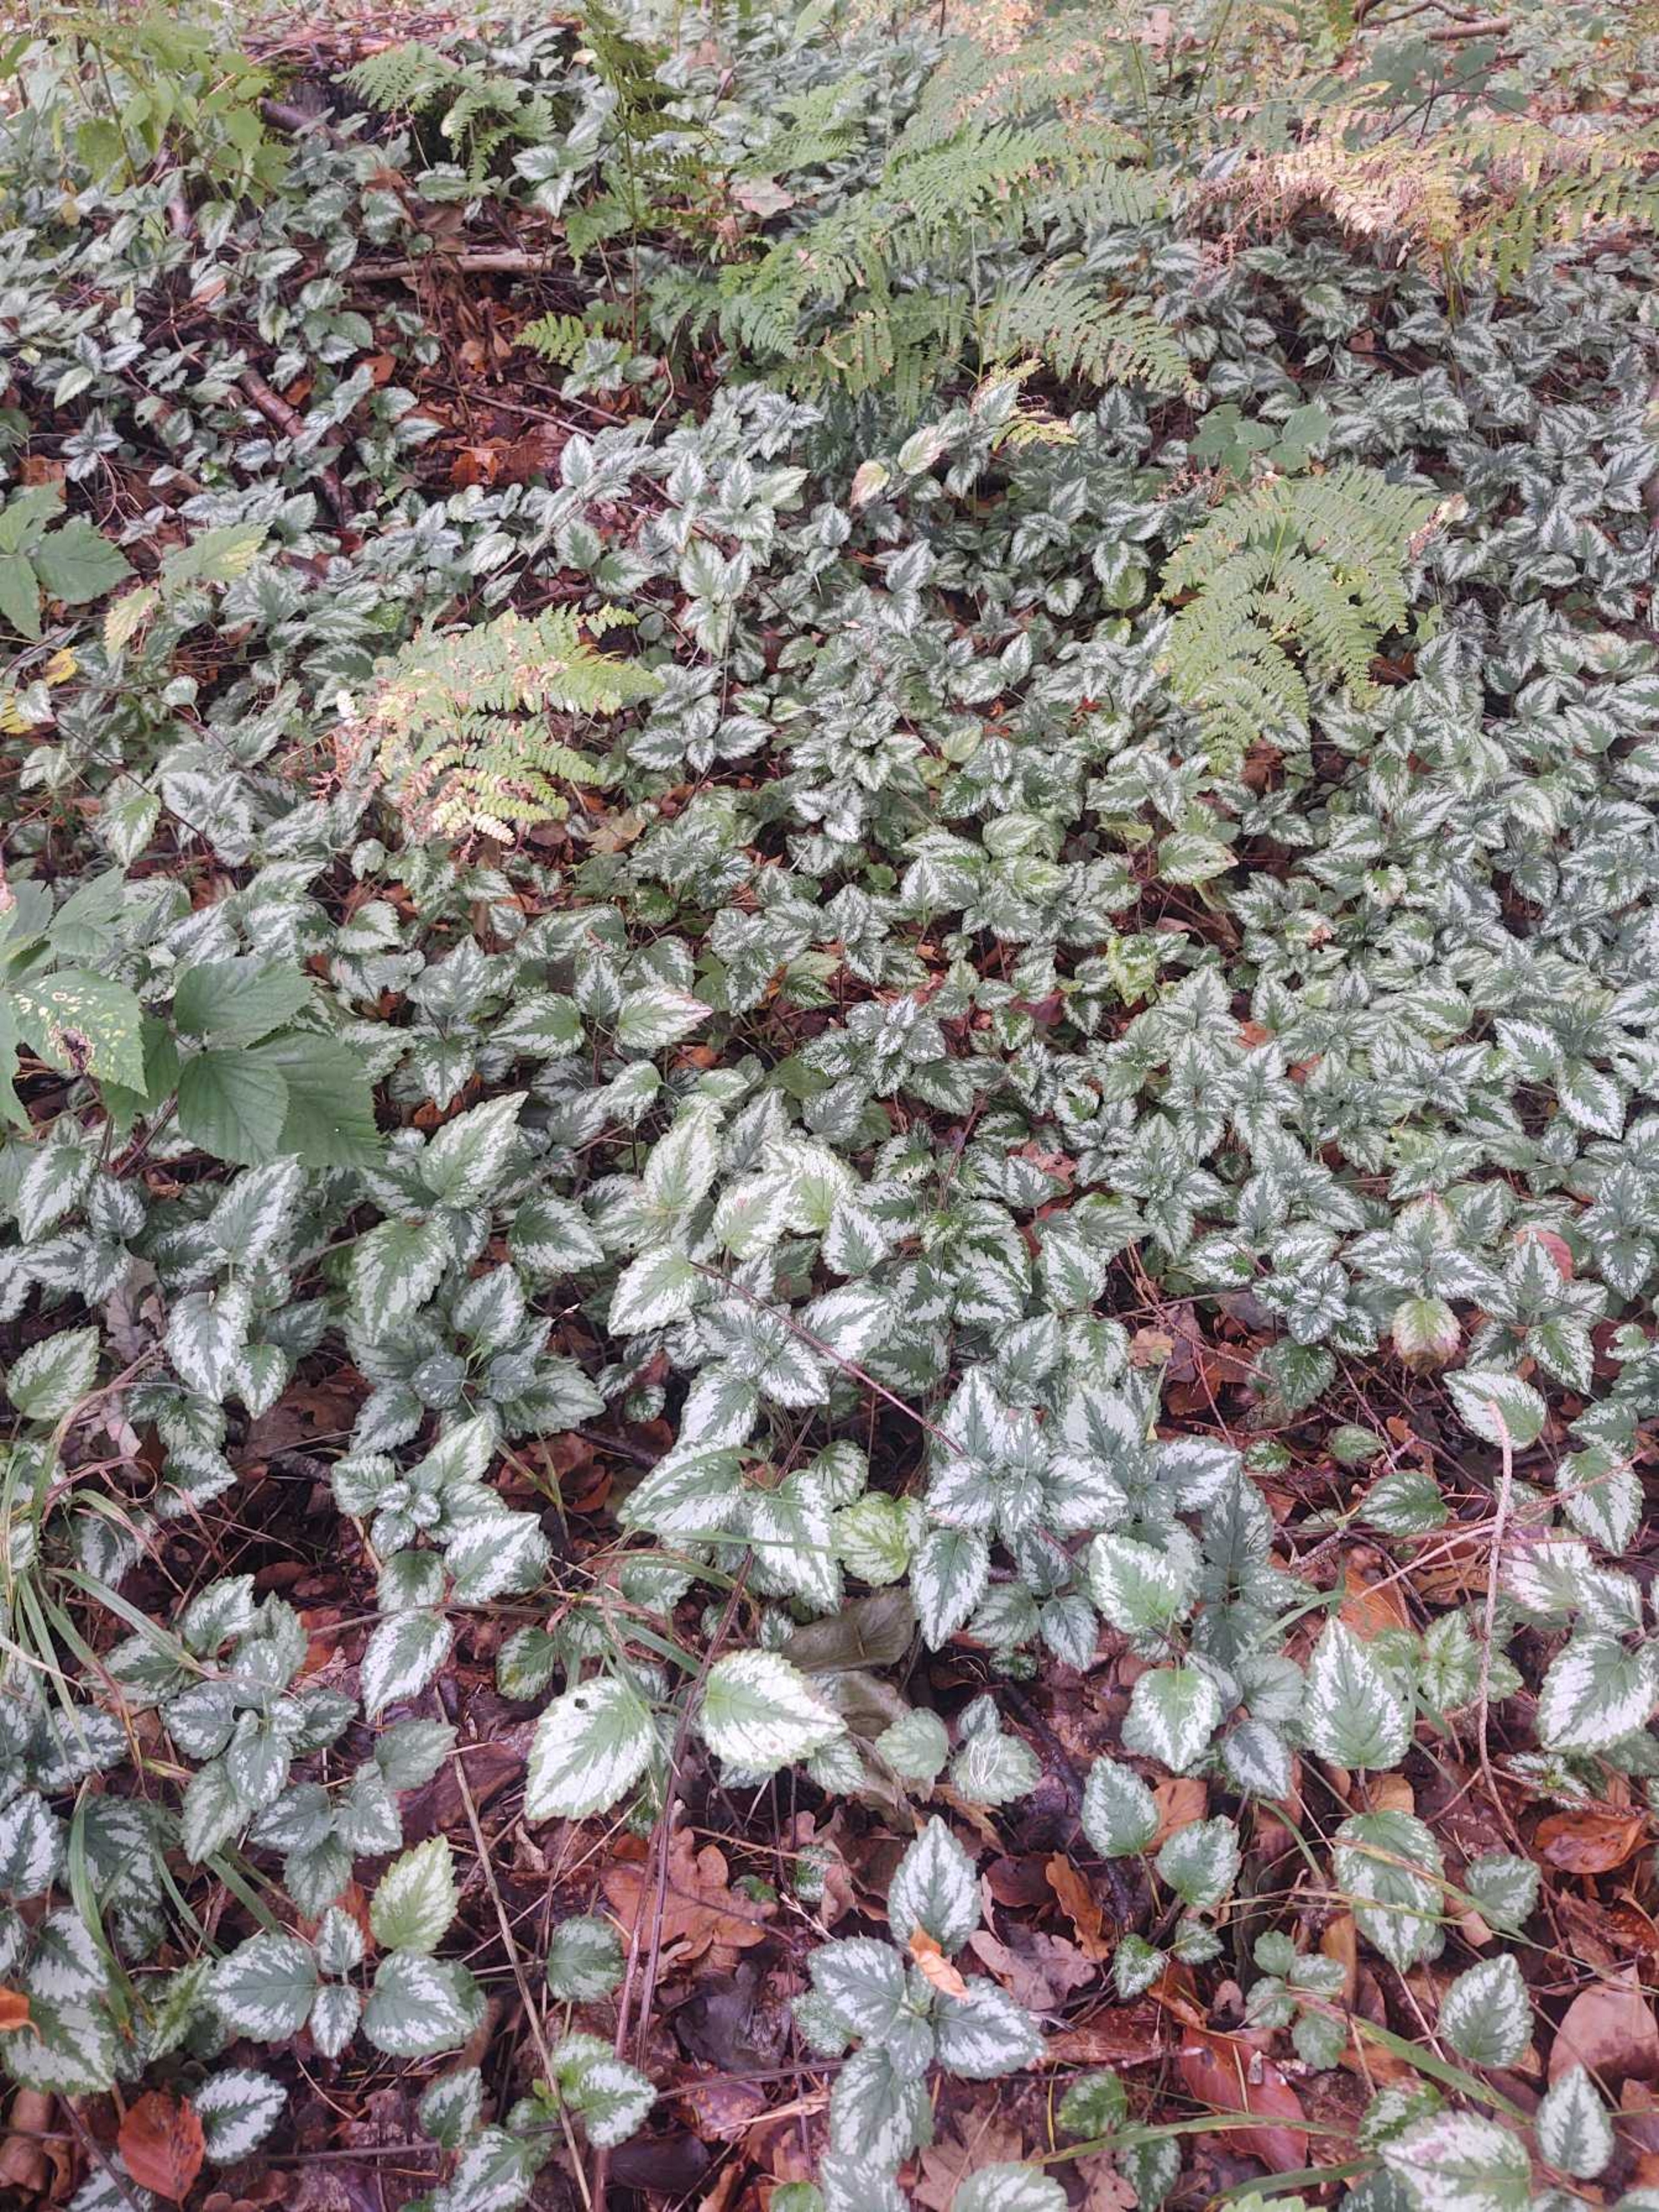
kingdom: Plantae
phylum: Tracheophyta
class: Magnoliopsida
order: Lamiales
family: Lamiaceae
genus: Lamium
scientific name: Lamium galeobdolon
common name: Have-guldnælde
